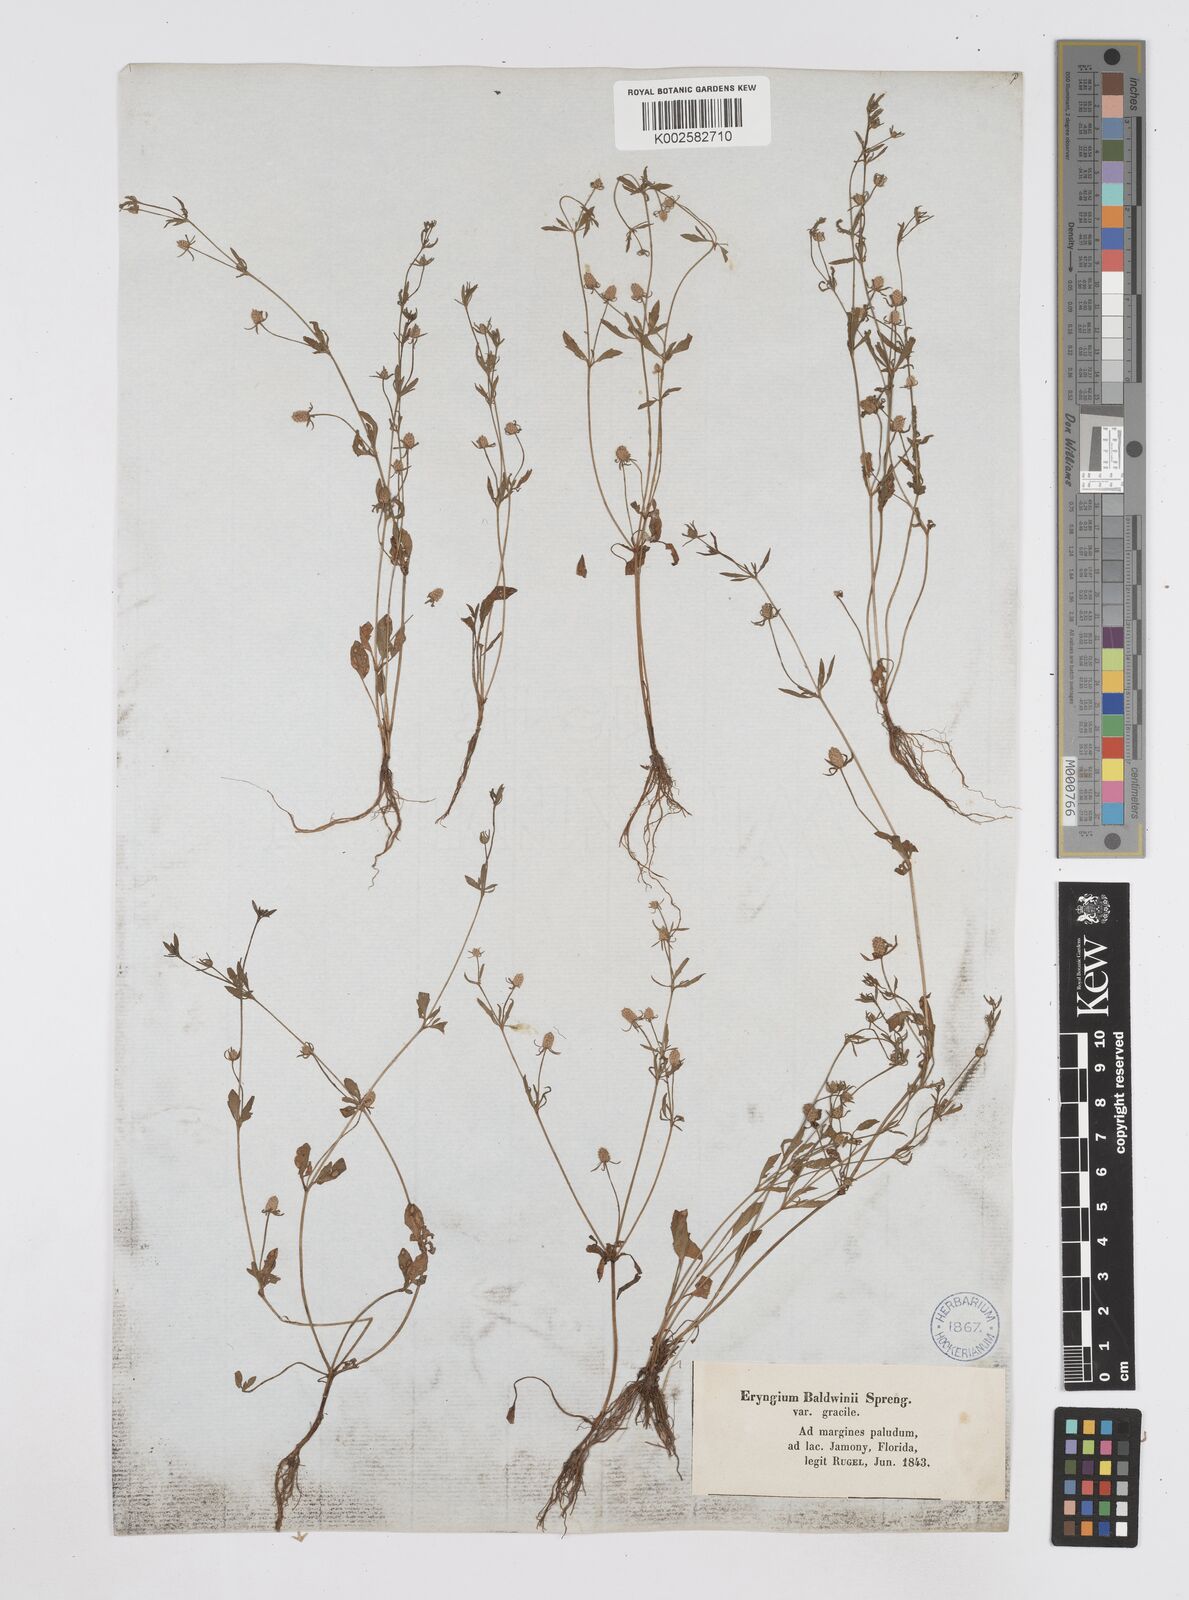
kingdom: Plantae
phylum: Tracheophyta
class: Magnoliopsida
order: Apiales
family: Apiaceae
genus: Eryngium
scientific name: Eryngium prostratum
